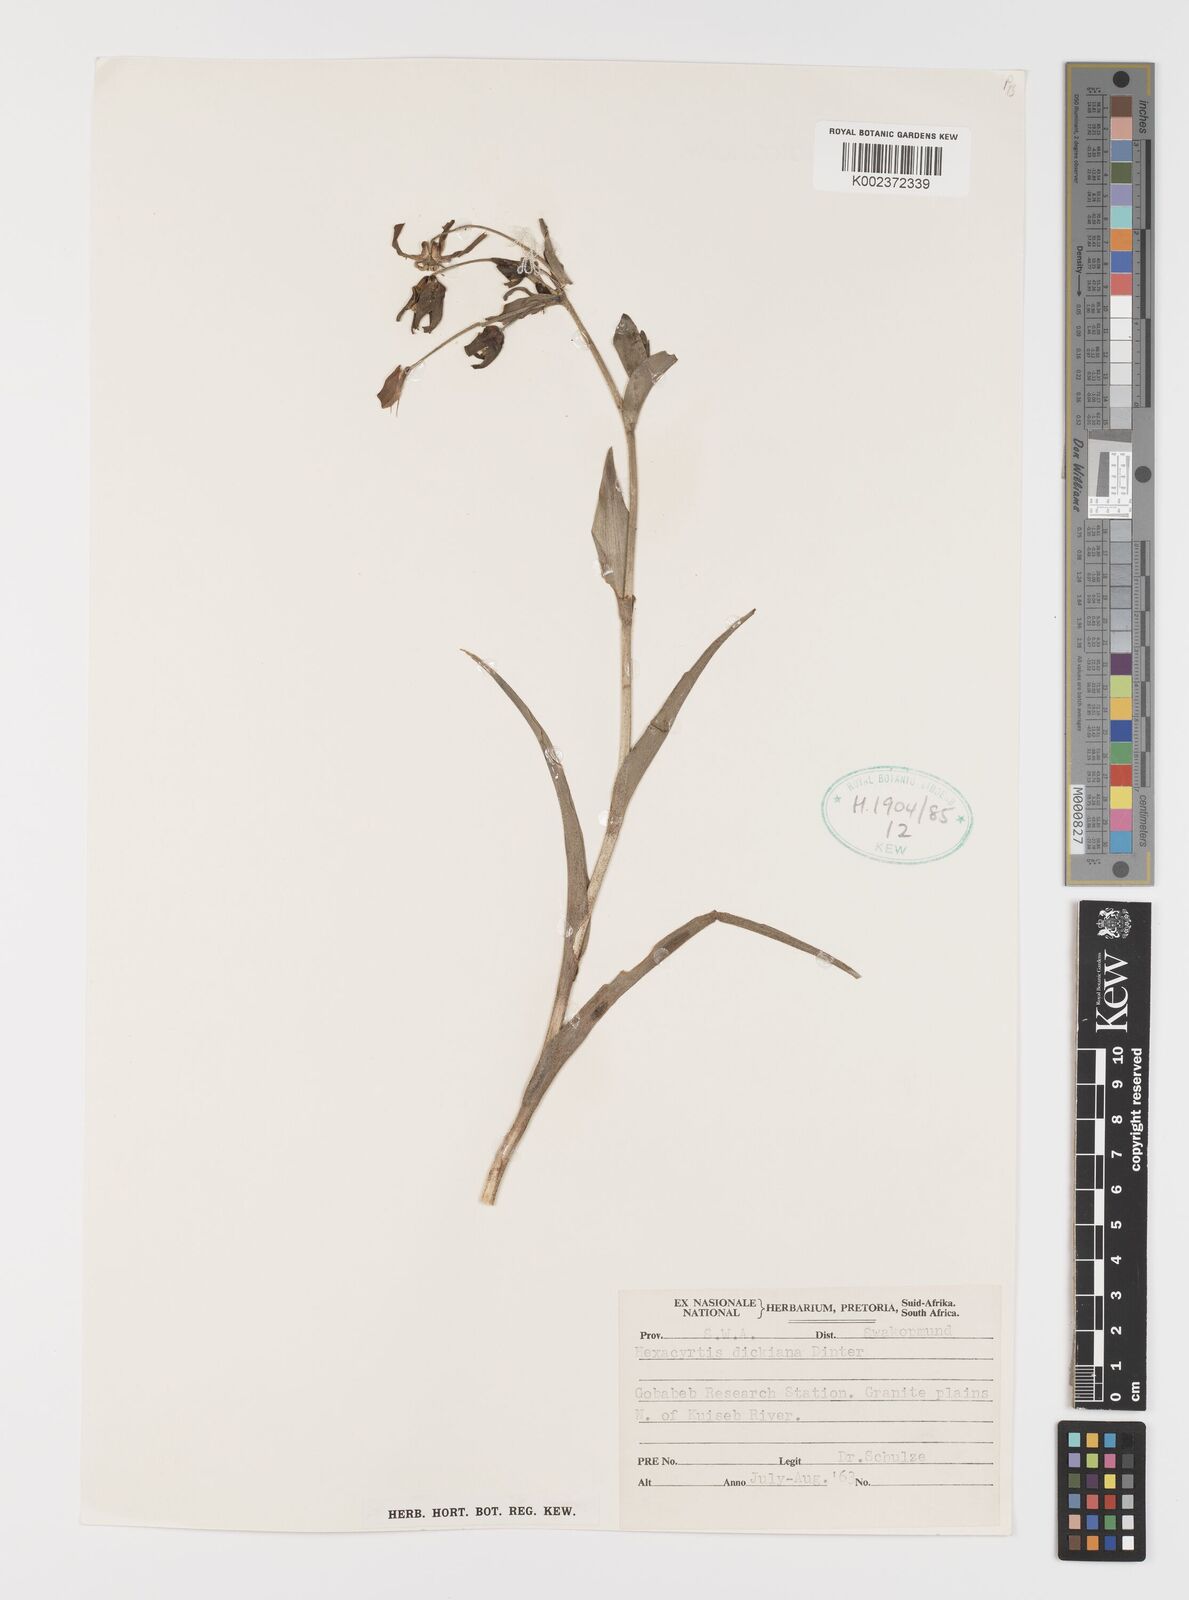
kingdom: Plantae
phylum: Tracheophyta
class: Liliopsida
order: Liliales
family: Colchicaceae
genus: Hexacyrtis
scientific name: Hexacyrtis dickiana
